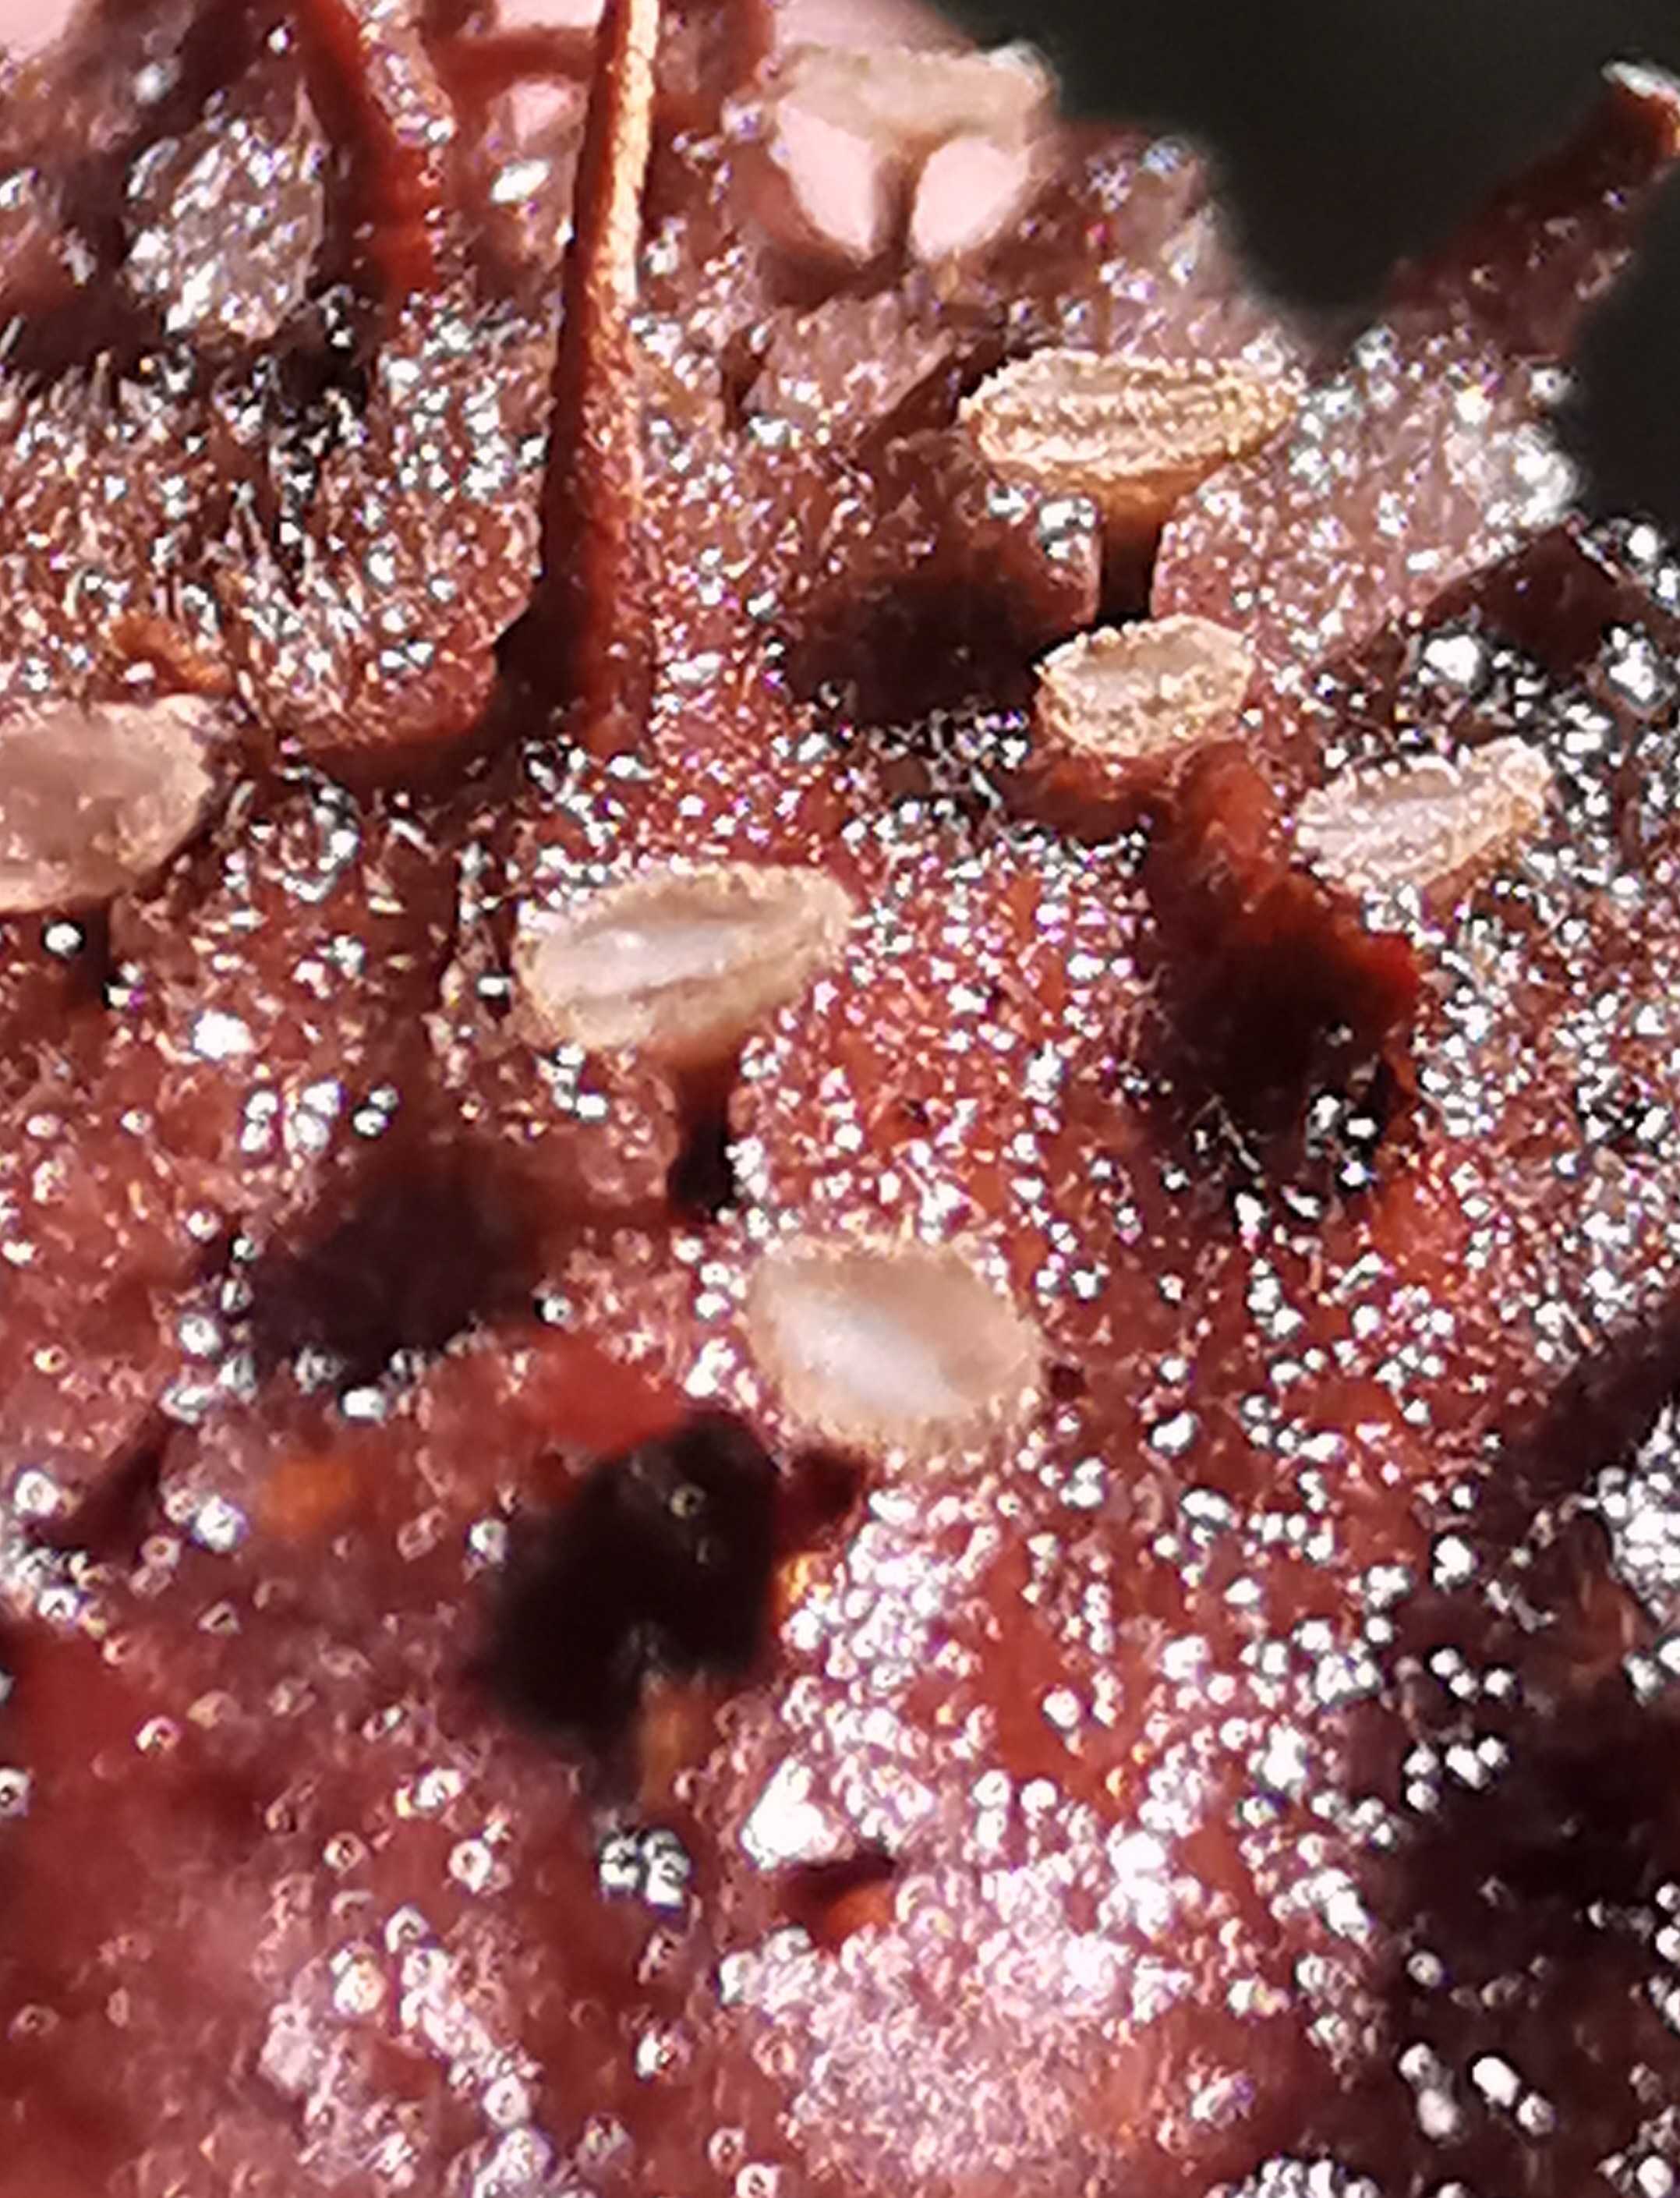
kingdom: Fungi
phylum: Ascomycota
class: Leotiomycetes
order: Helotiales
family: Lachnaceae
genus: Brunnipila
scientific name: Brunnipila fuscescens
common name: bøge-frynseskive
